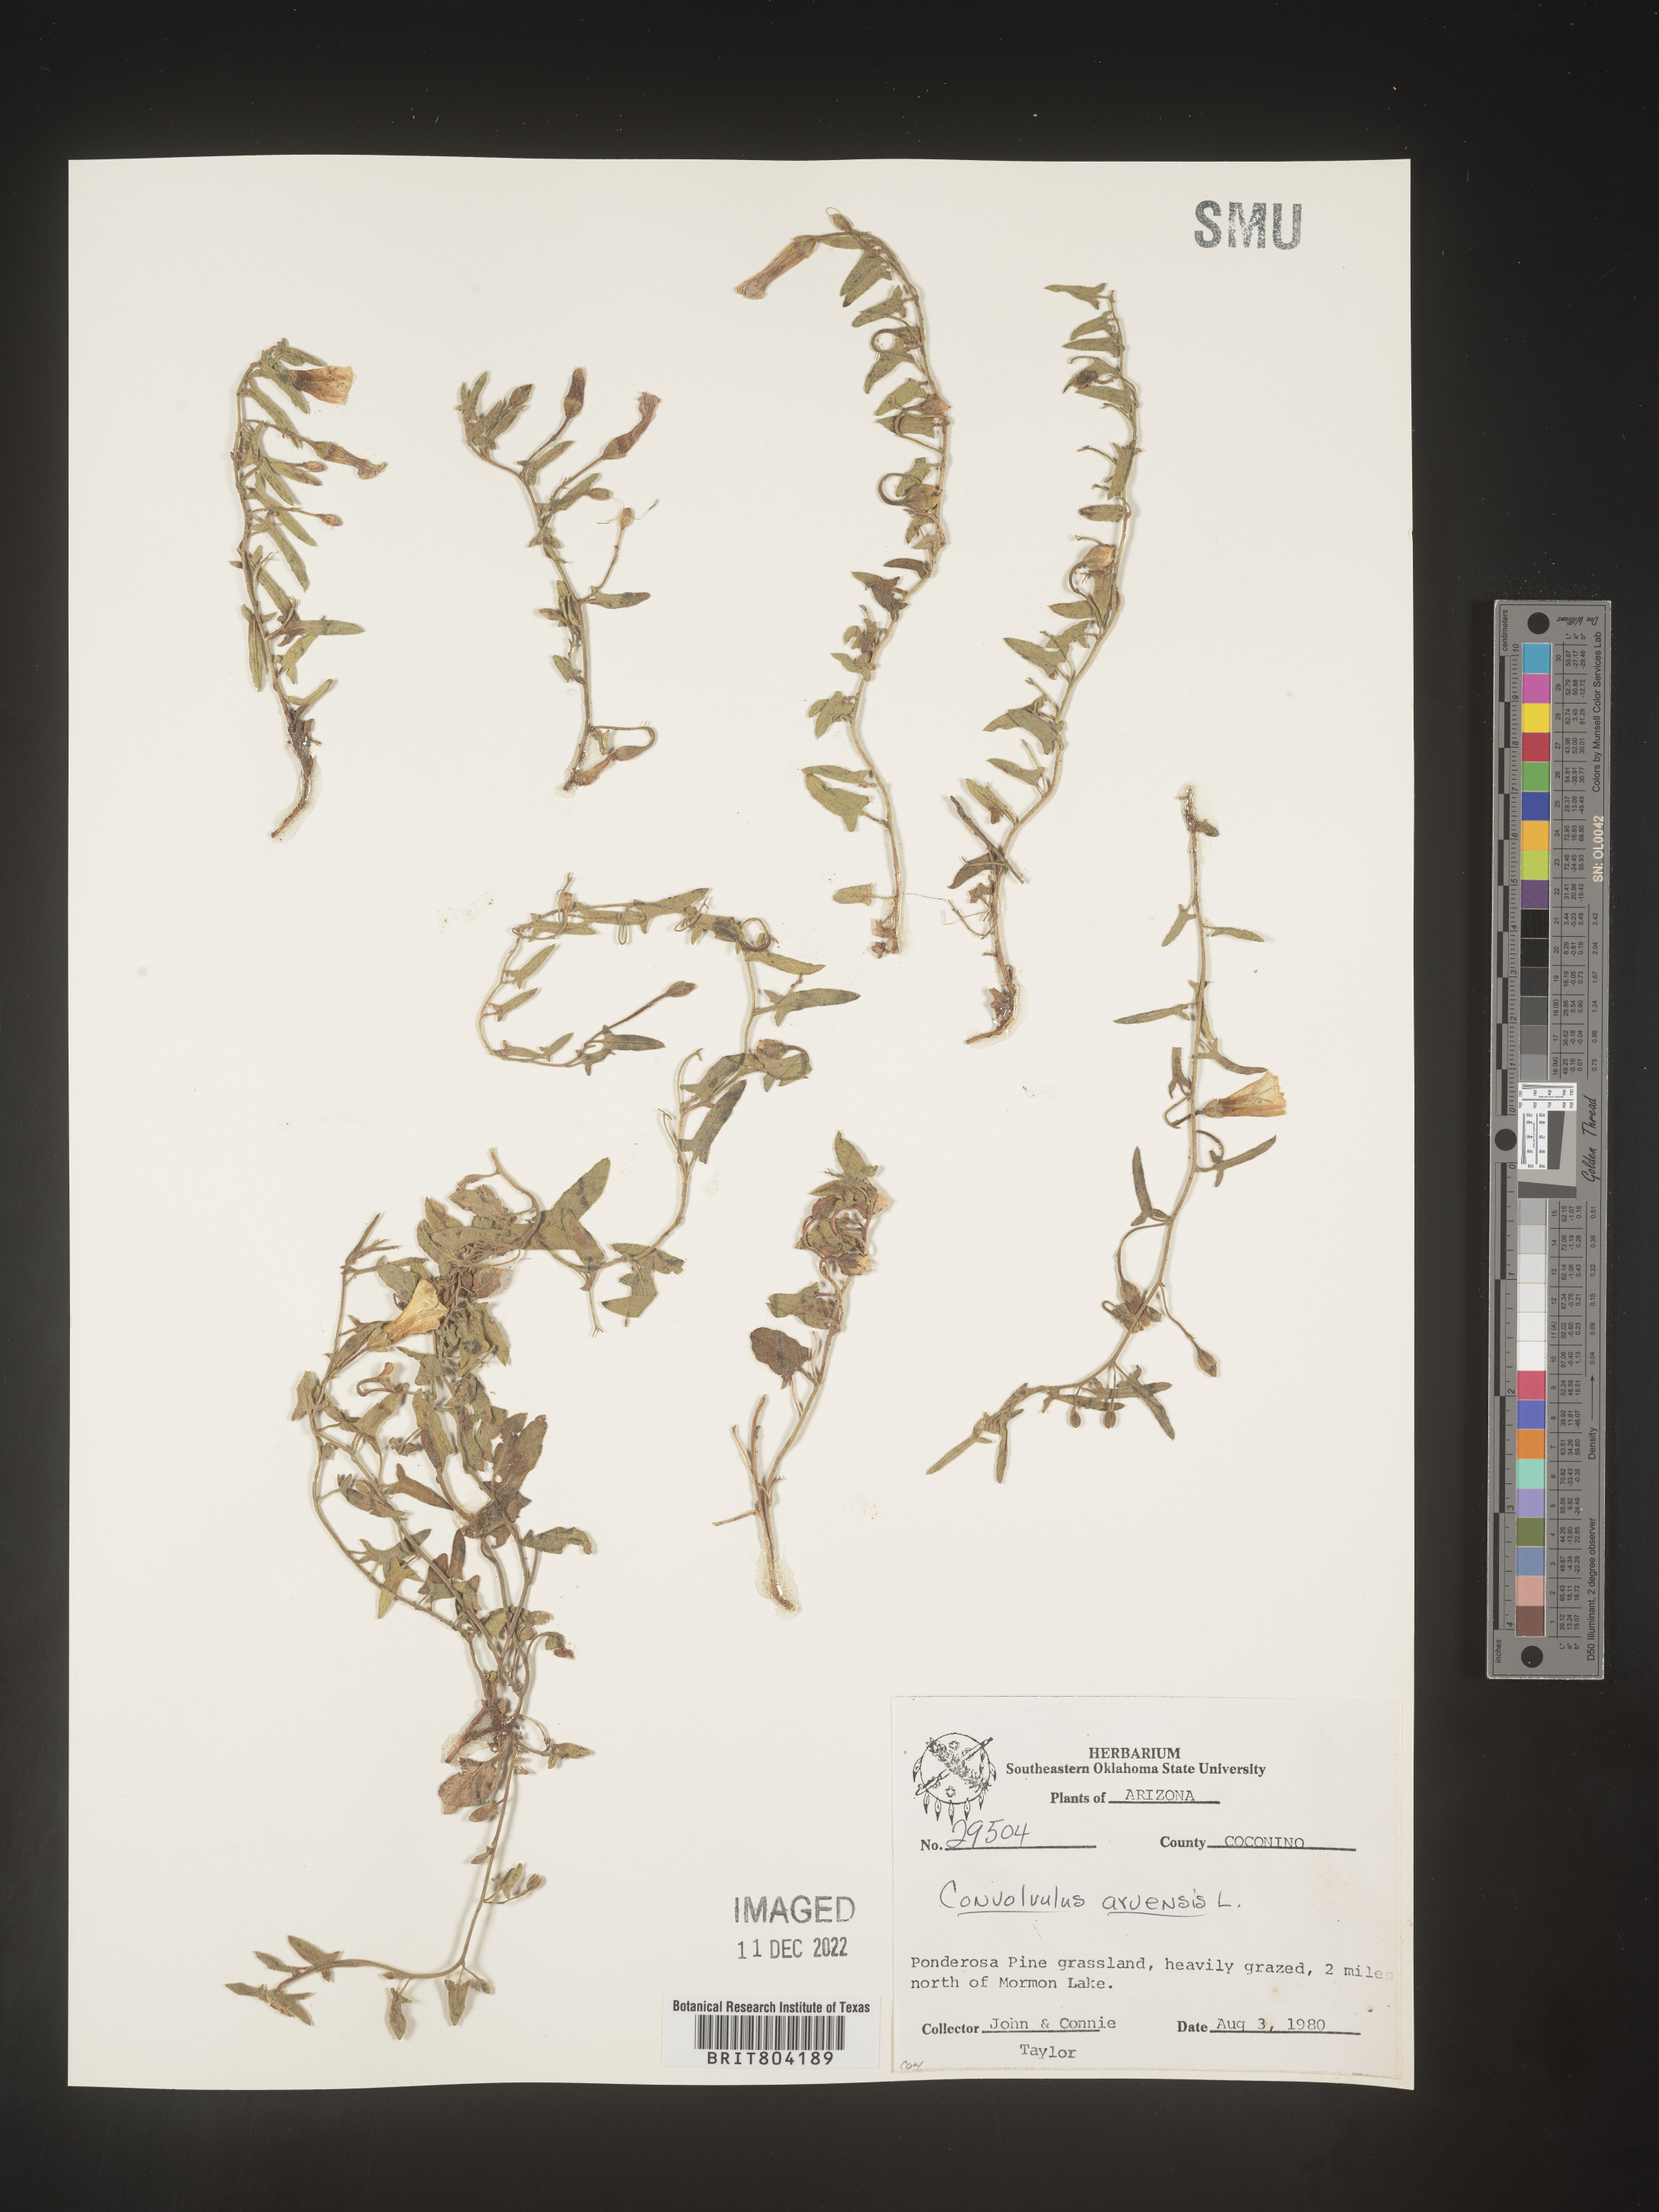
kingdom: Plantae
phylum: Tracheophyta
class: Magnoliopsida
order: Solanales
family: Convolvulaceae
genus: Convolvulus
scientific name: Convolvulus arvensis
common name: Field bindweed
